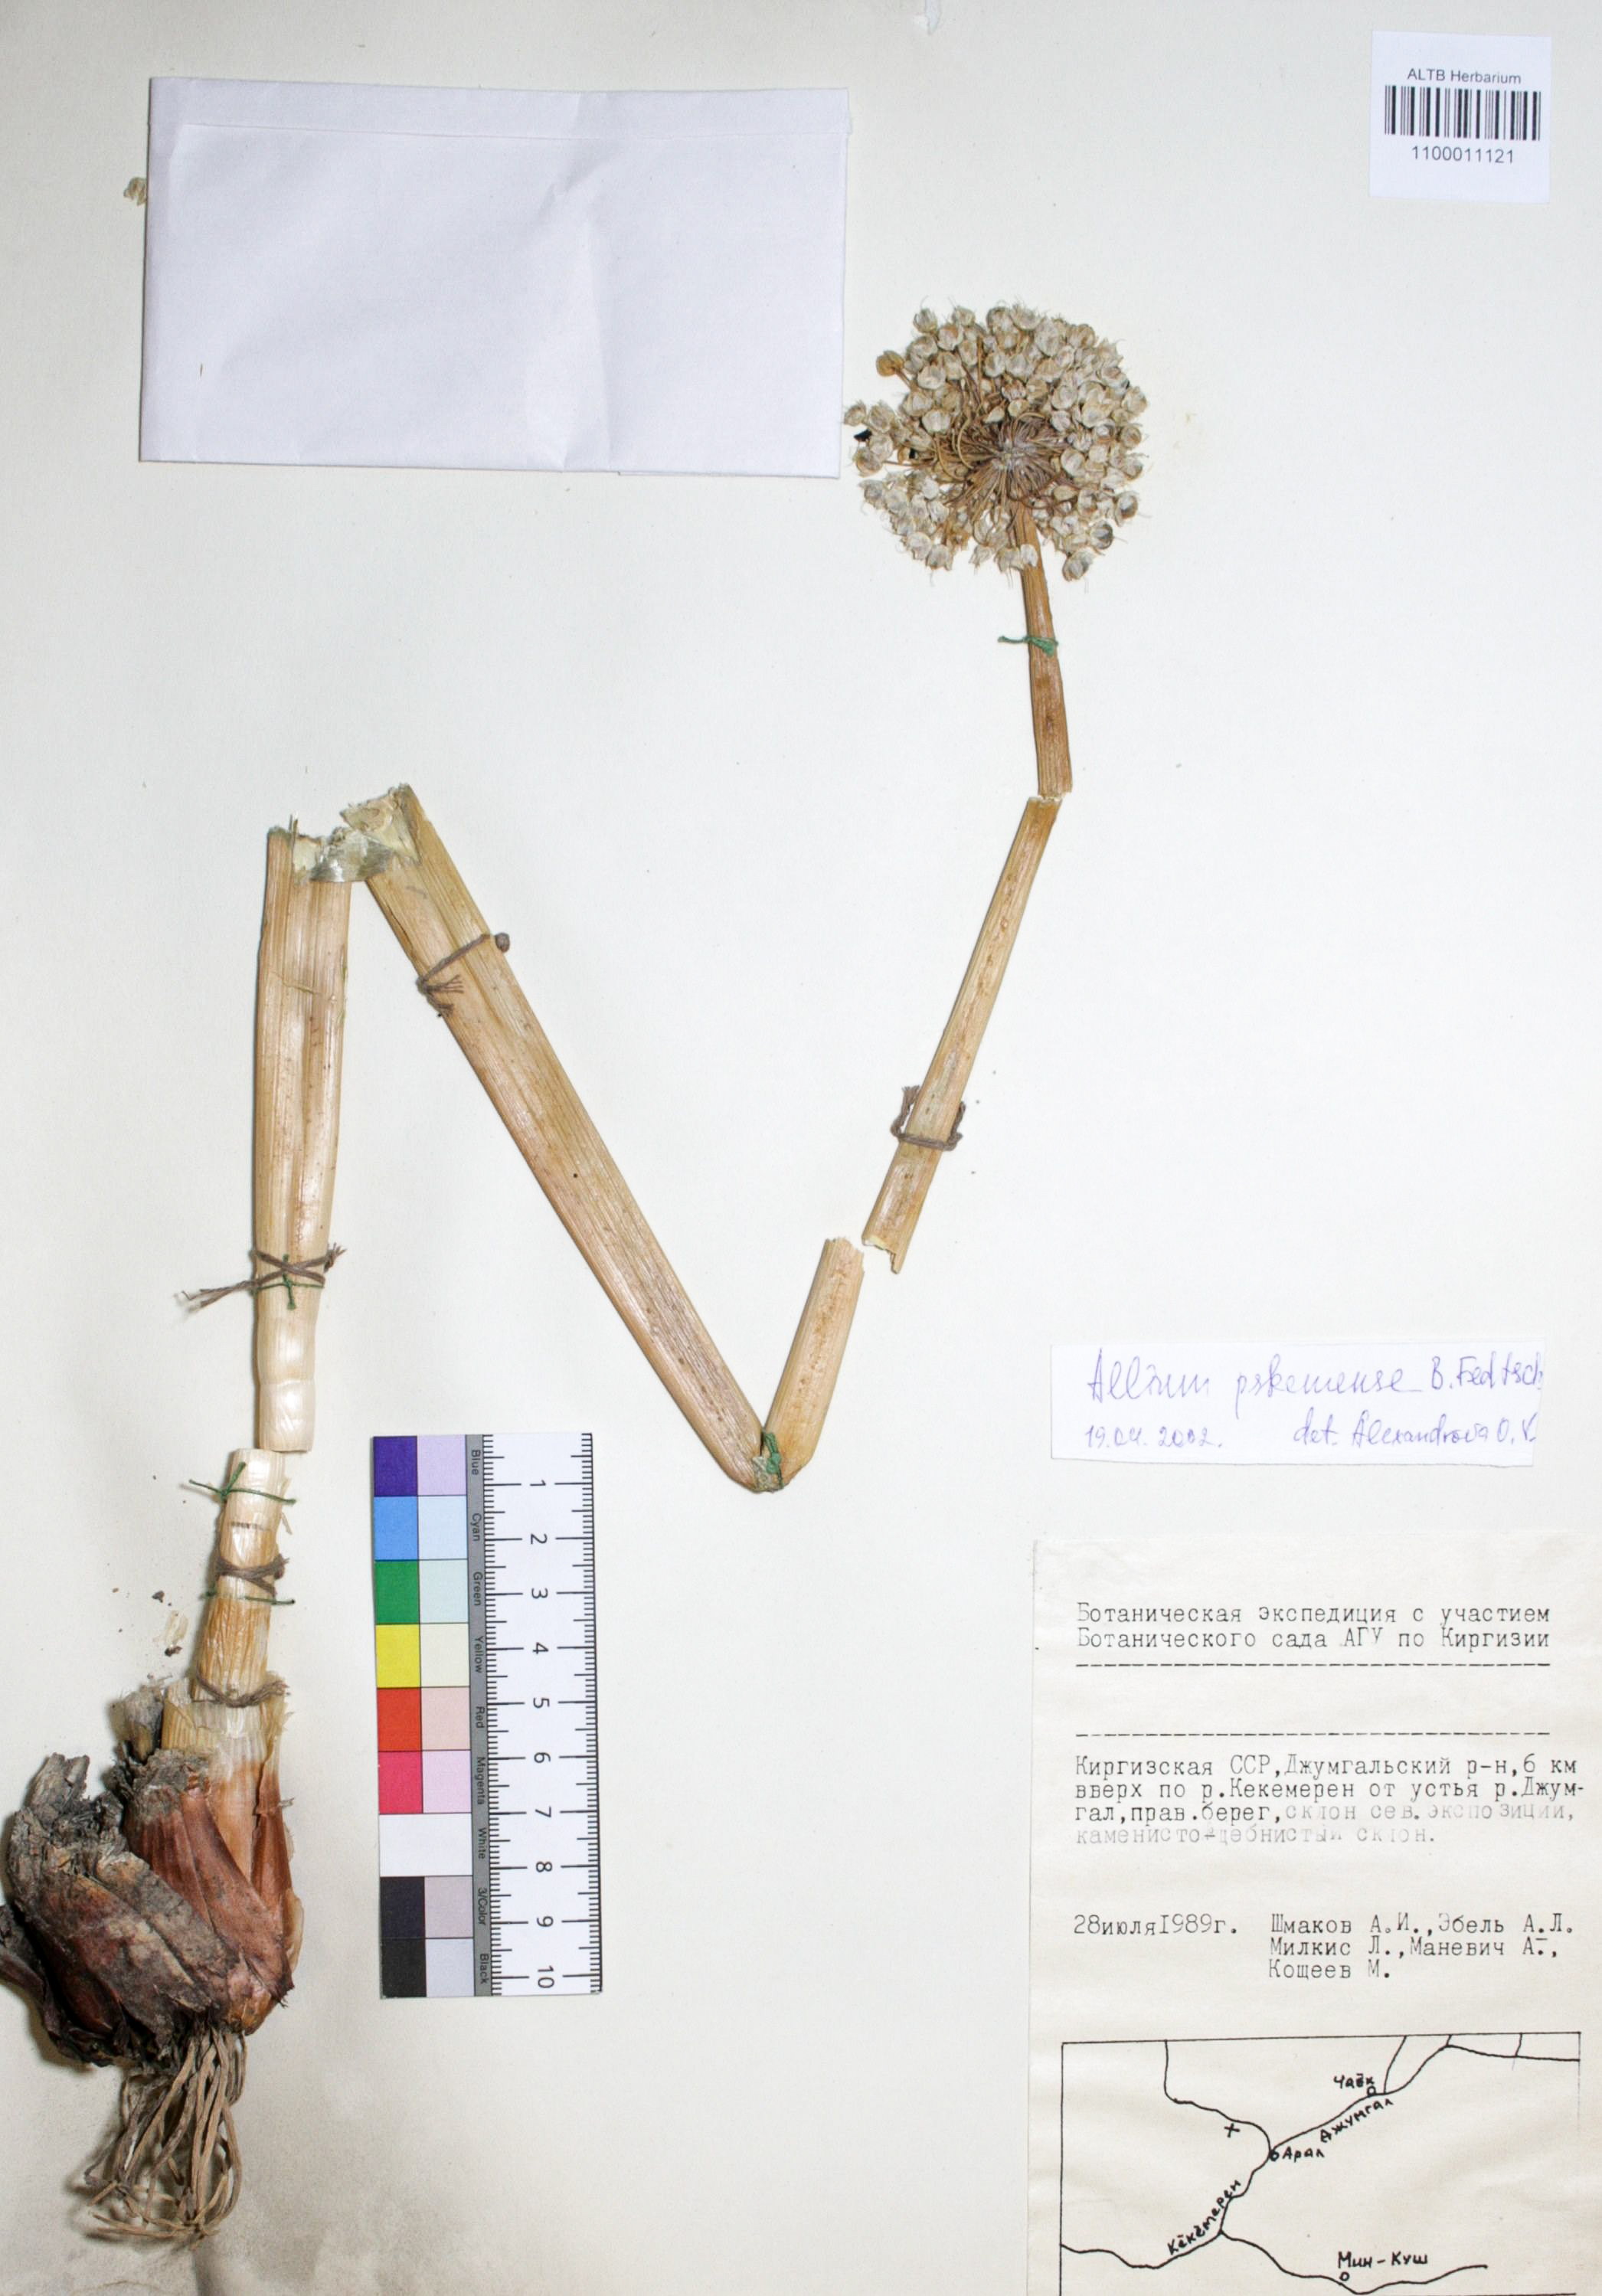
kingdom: Plantae
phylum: Tracheophyta
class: Liliopsida
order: Asparagales
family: Amaryllidaceae
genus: Allium
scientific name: Allium pskemense
